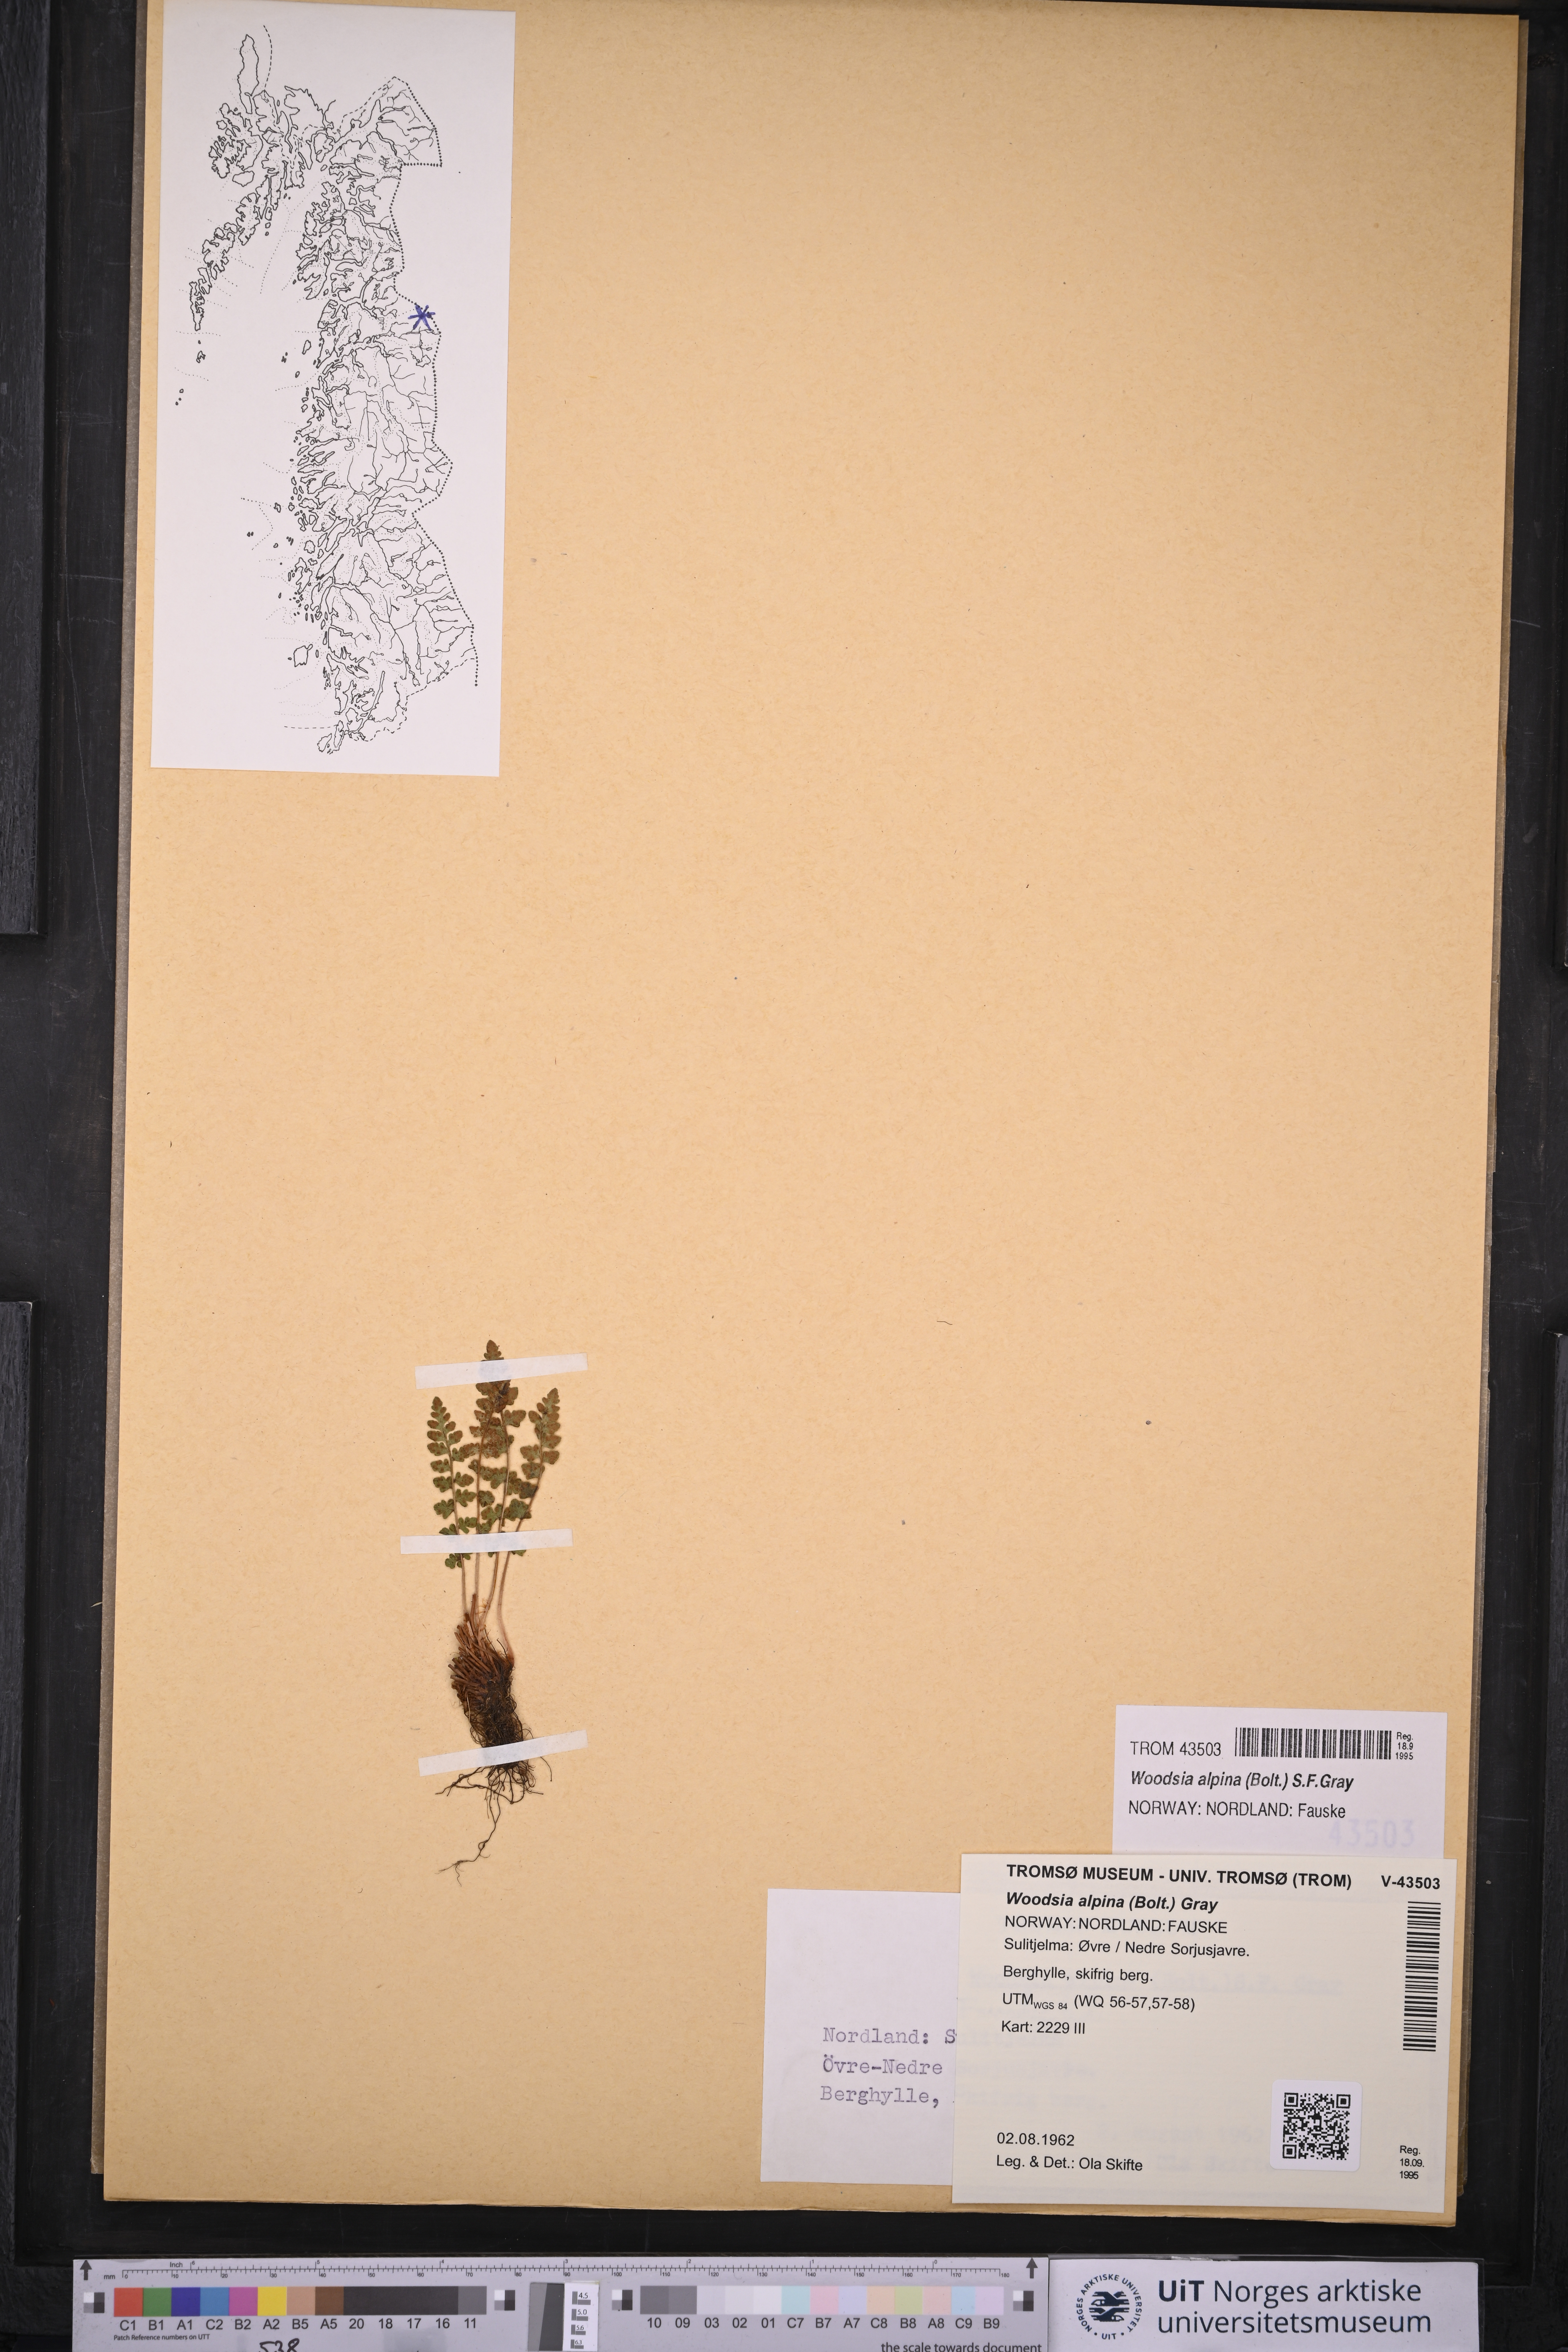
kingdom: Plantae
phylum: Tracheophyta
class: Polypodiopsida
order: Polypodiales
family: Woodsiaceae
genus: Woodsia
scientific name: Woodsia alpina
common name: Alpine woodsia
